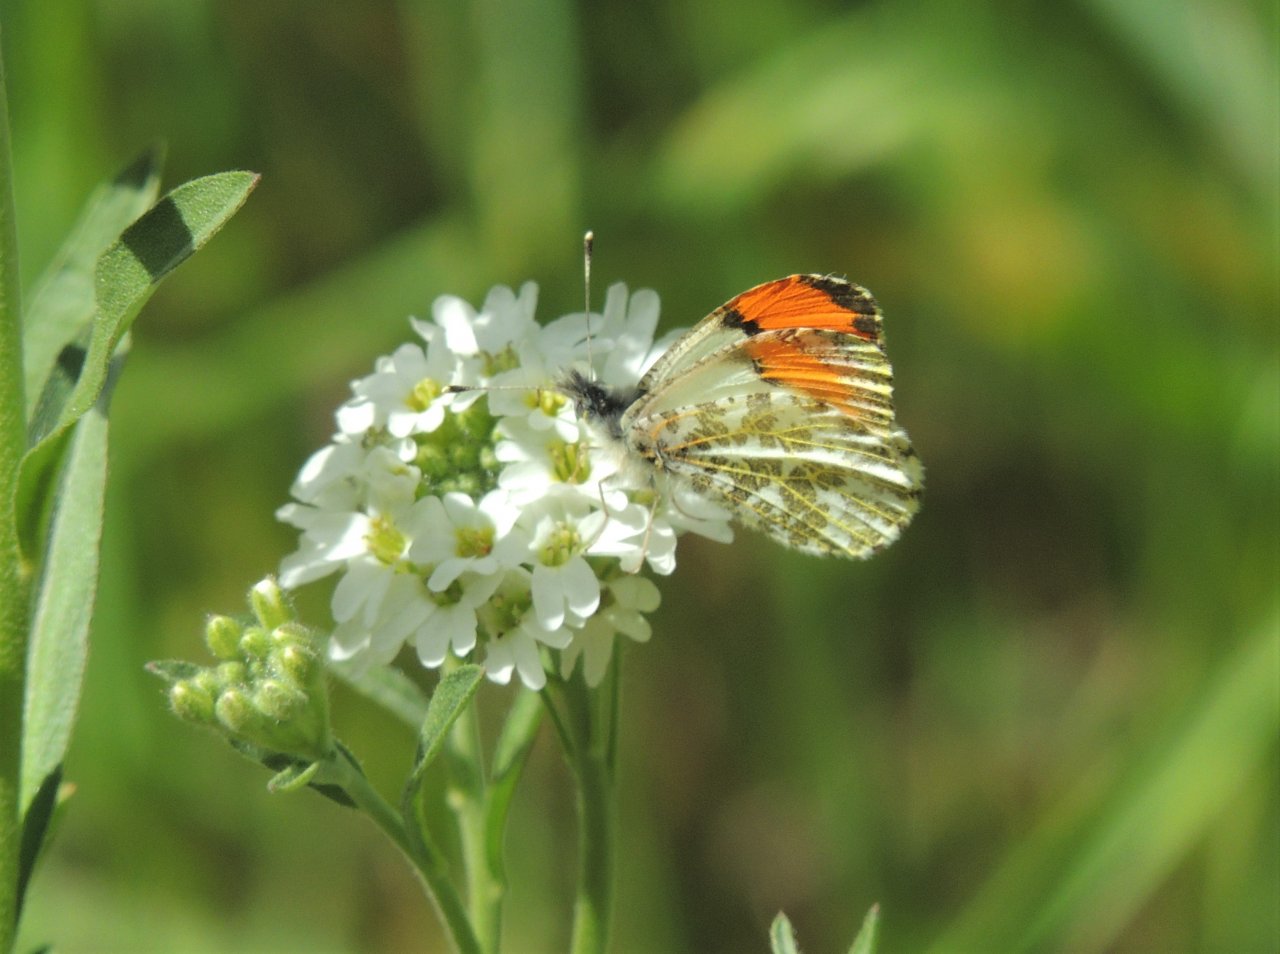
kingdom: Animalia
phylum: Arthropoda
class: Insecta
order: Lepidoptera
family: Pieridae
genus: Anthocharis
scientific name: Anthocharis sara
